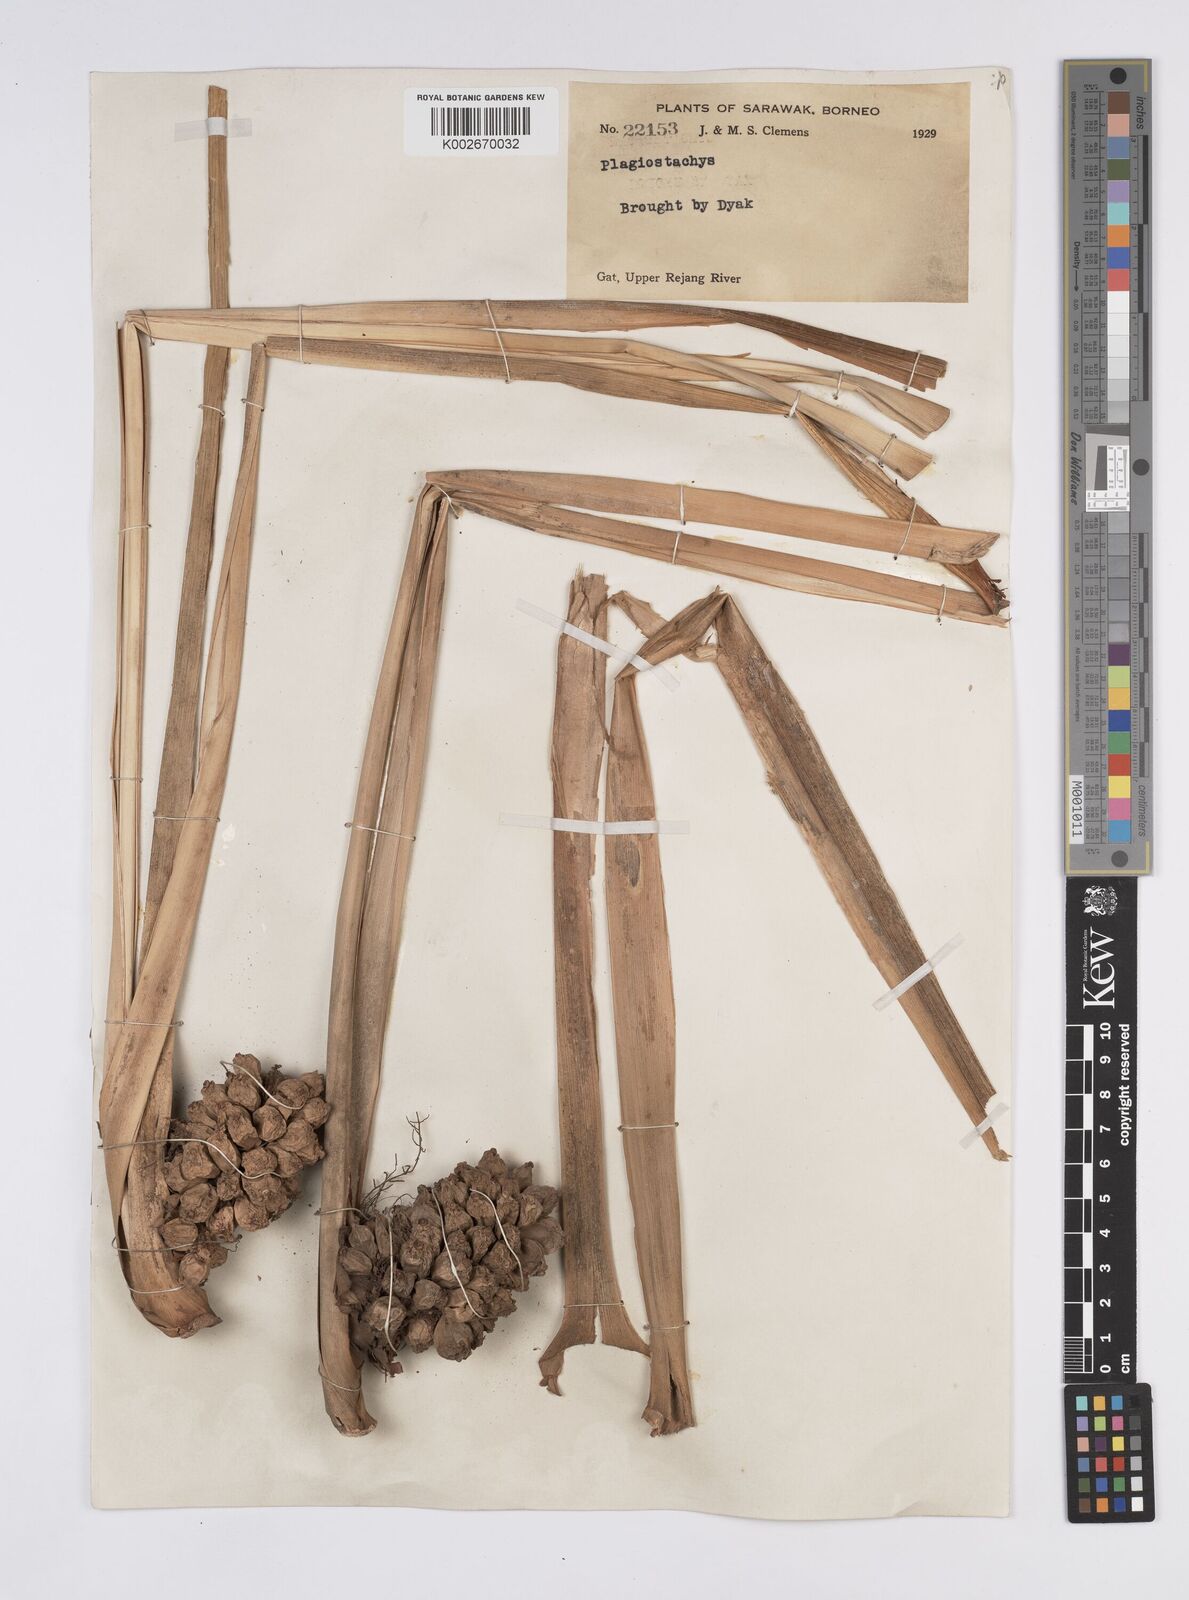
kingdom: Plantae
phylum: Tracheophyta
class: Liliopsida
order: Zingiberales
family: Zingiberaceae
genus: Plagiostachys
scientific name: Plagiostachys
